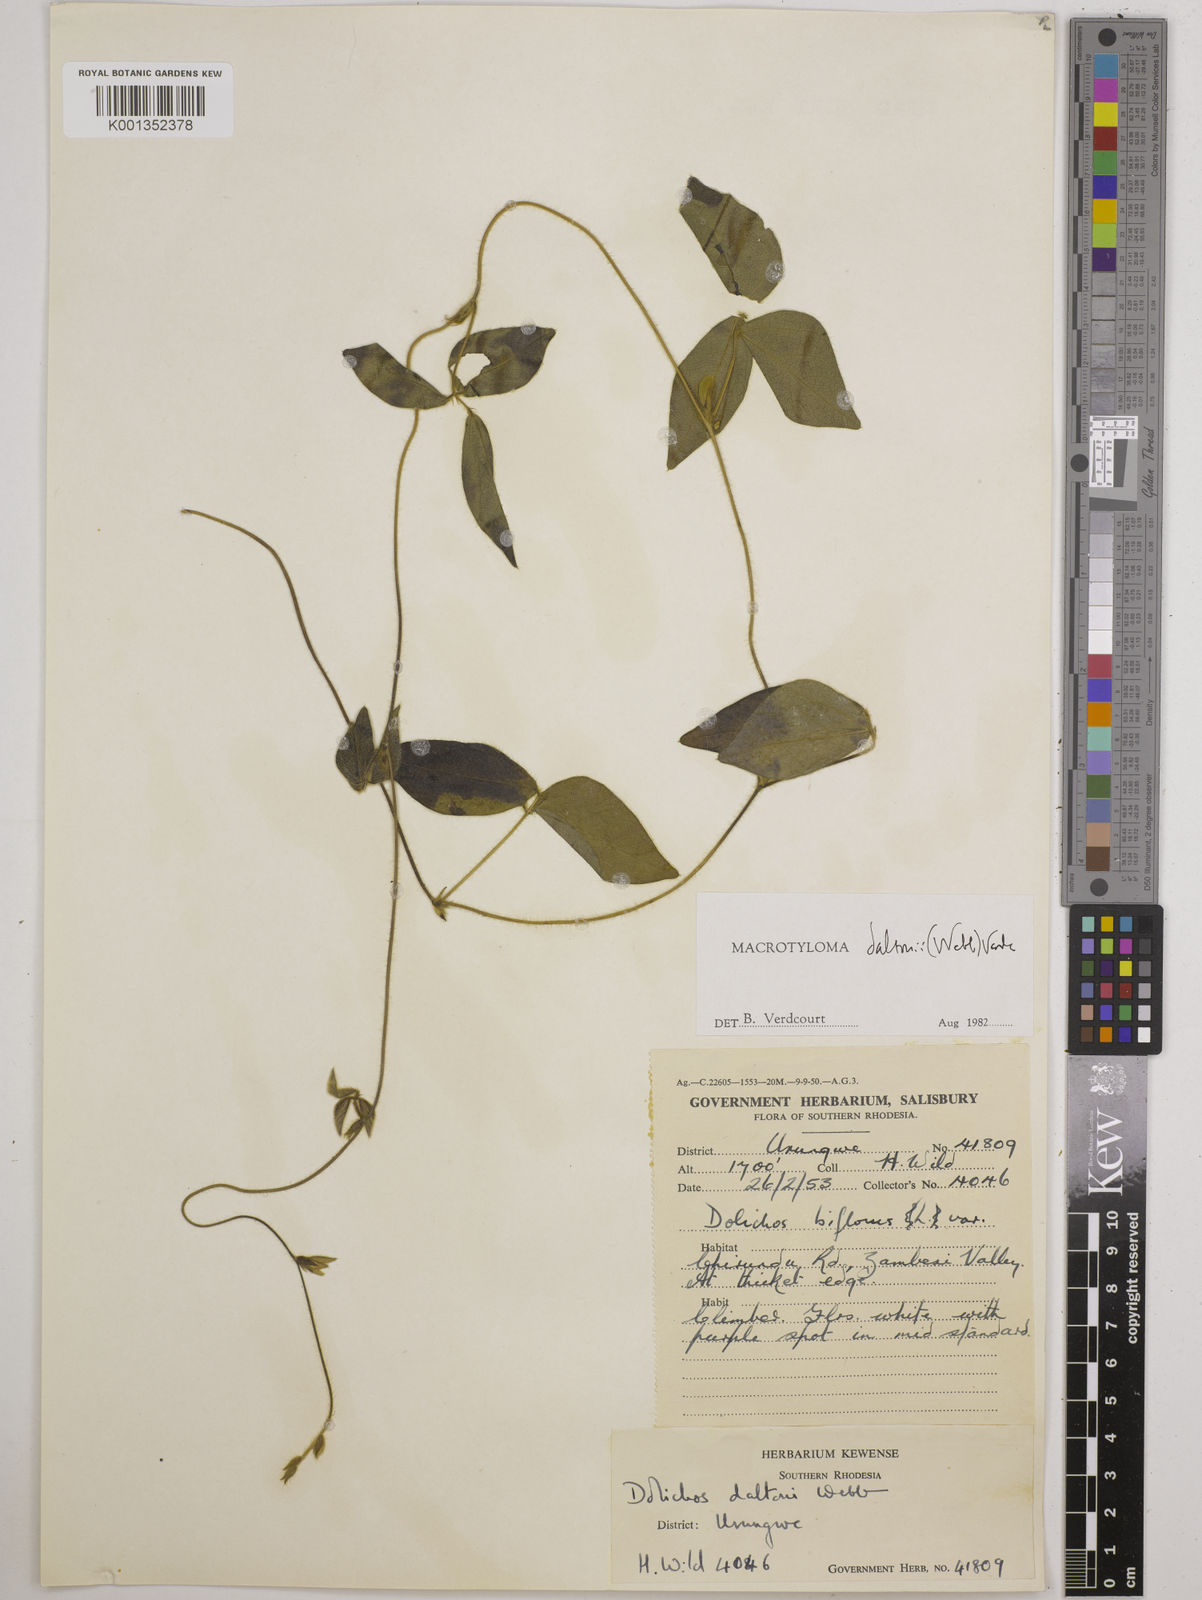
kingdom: Plantae
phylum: Tracheophyta
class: Magnoliopsida
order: Fabales
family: Fabaceae
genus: Macrotyloma
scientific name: Macrotyloma daltonii
